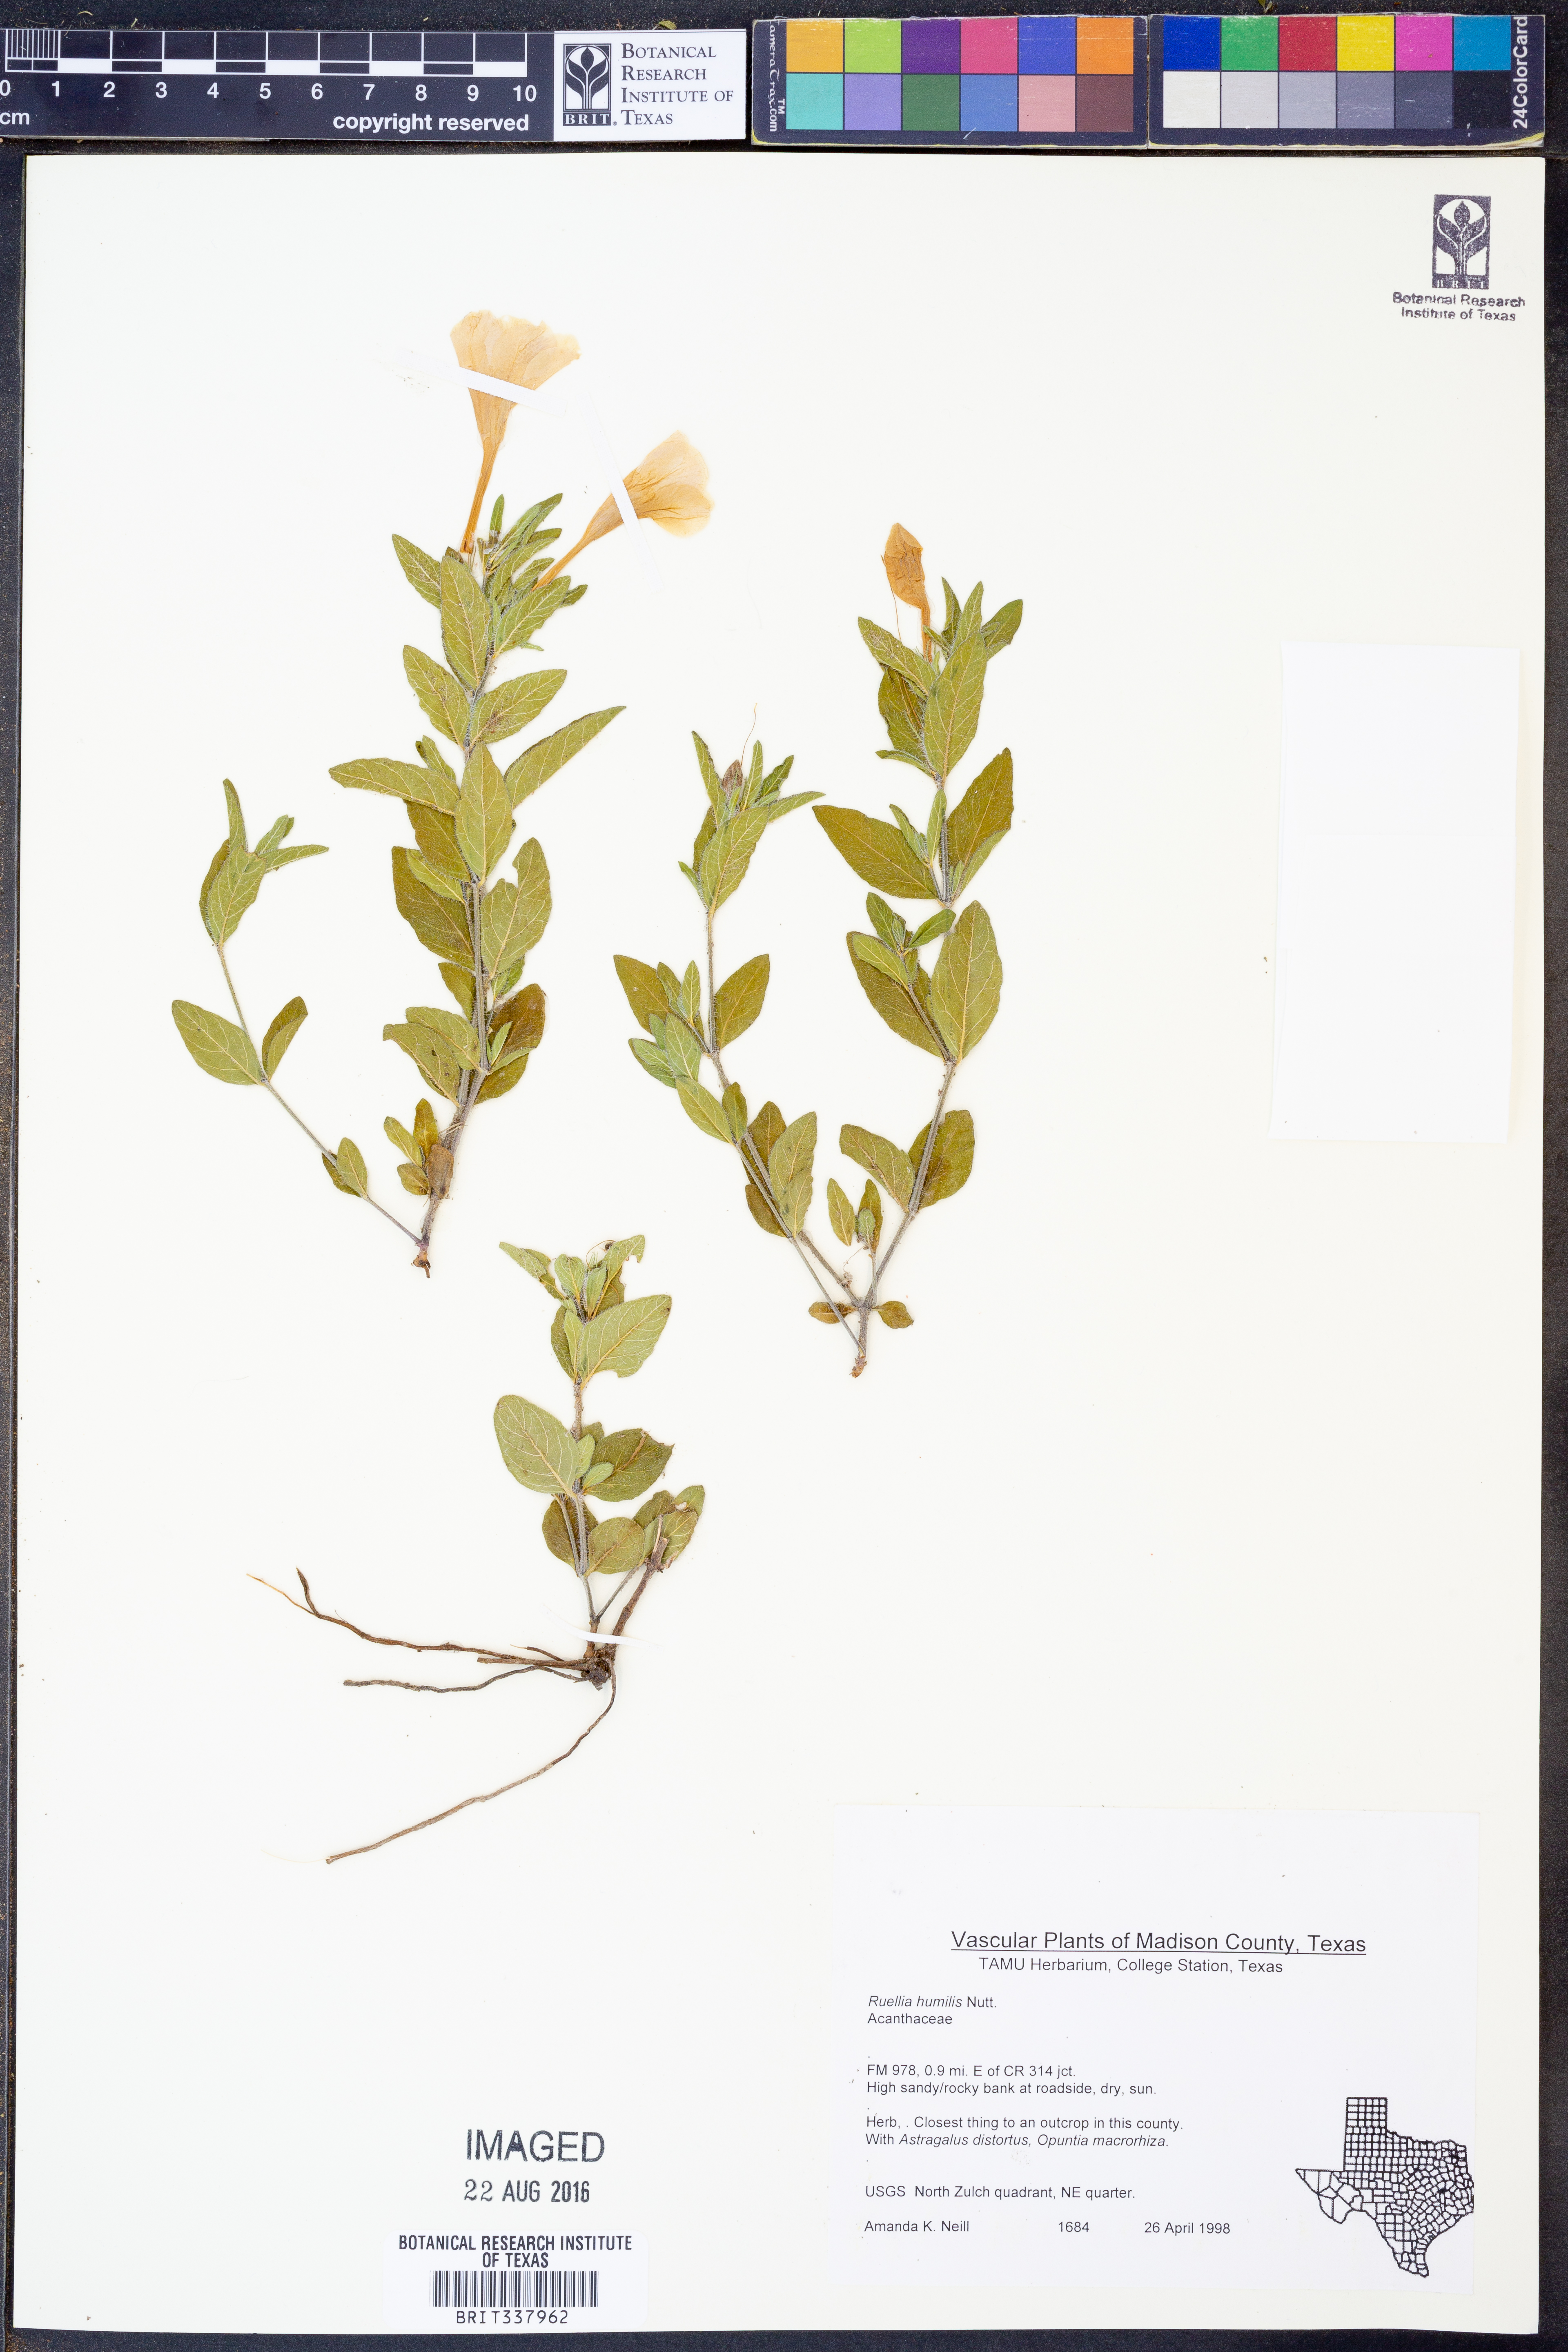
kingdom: Plantae
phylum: Tracheophyta
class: Magnoliopsida
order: Lamiales
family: Acanthaceae
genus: Ruellia
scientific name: Ruellia humilis
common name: Fringe-leaf ruellia
